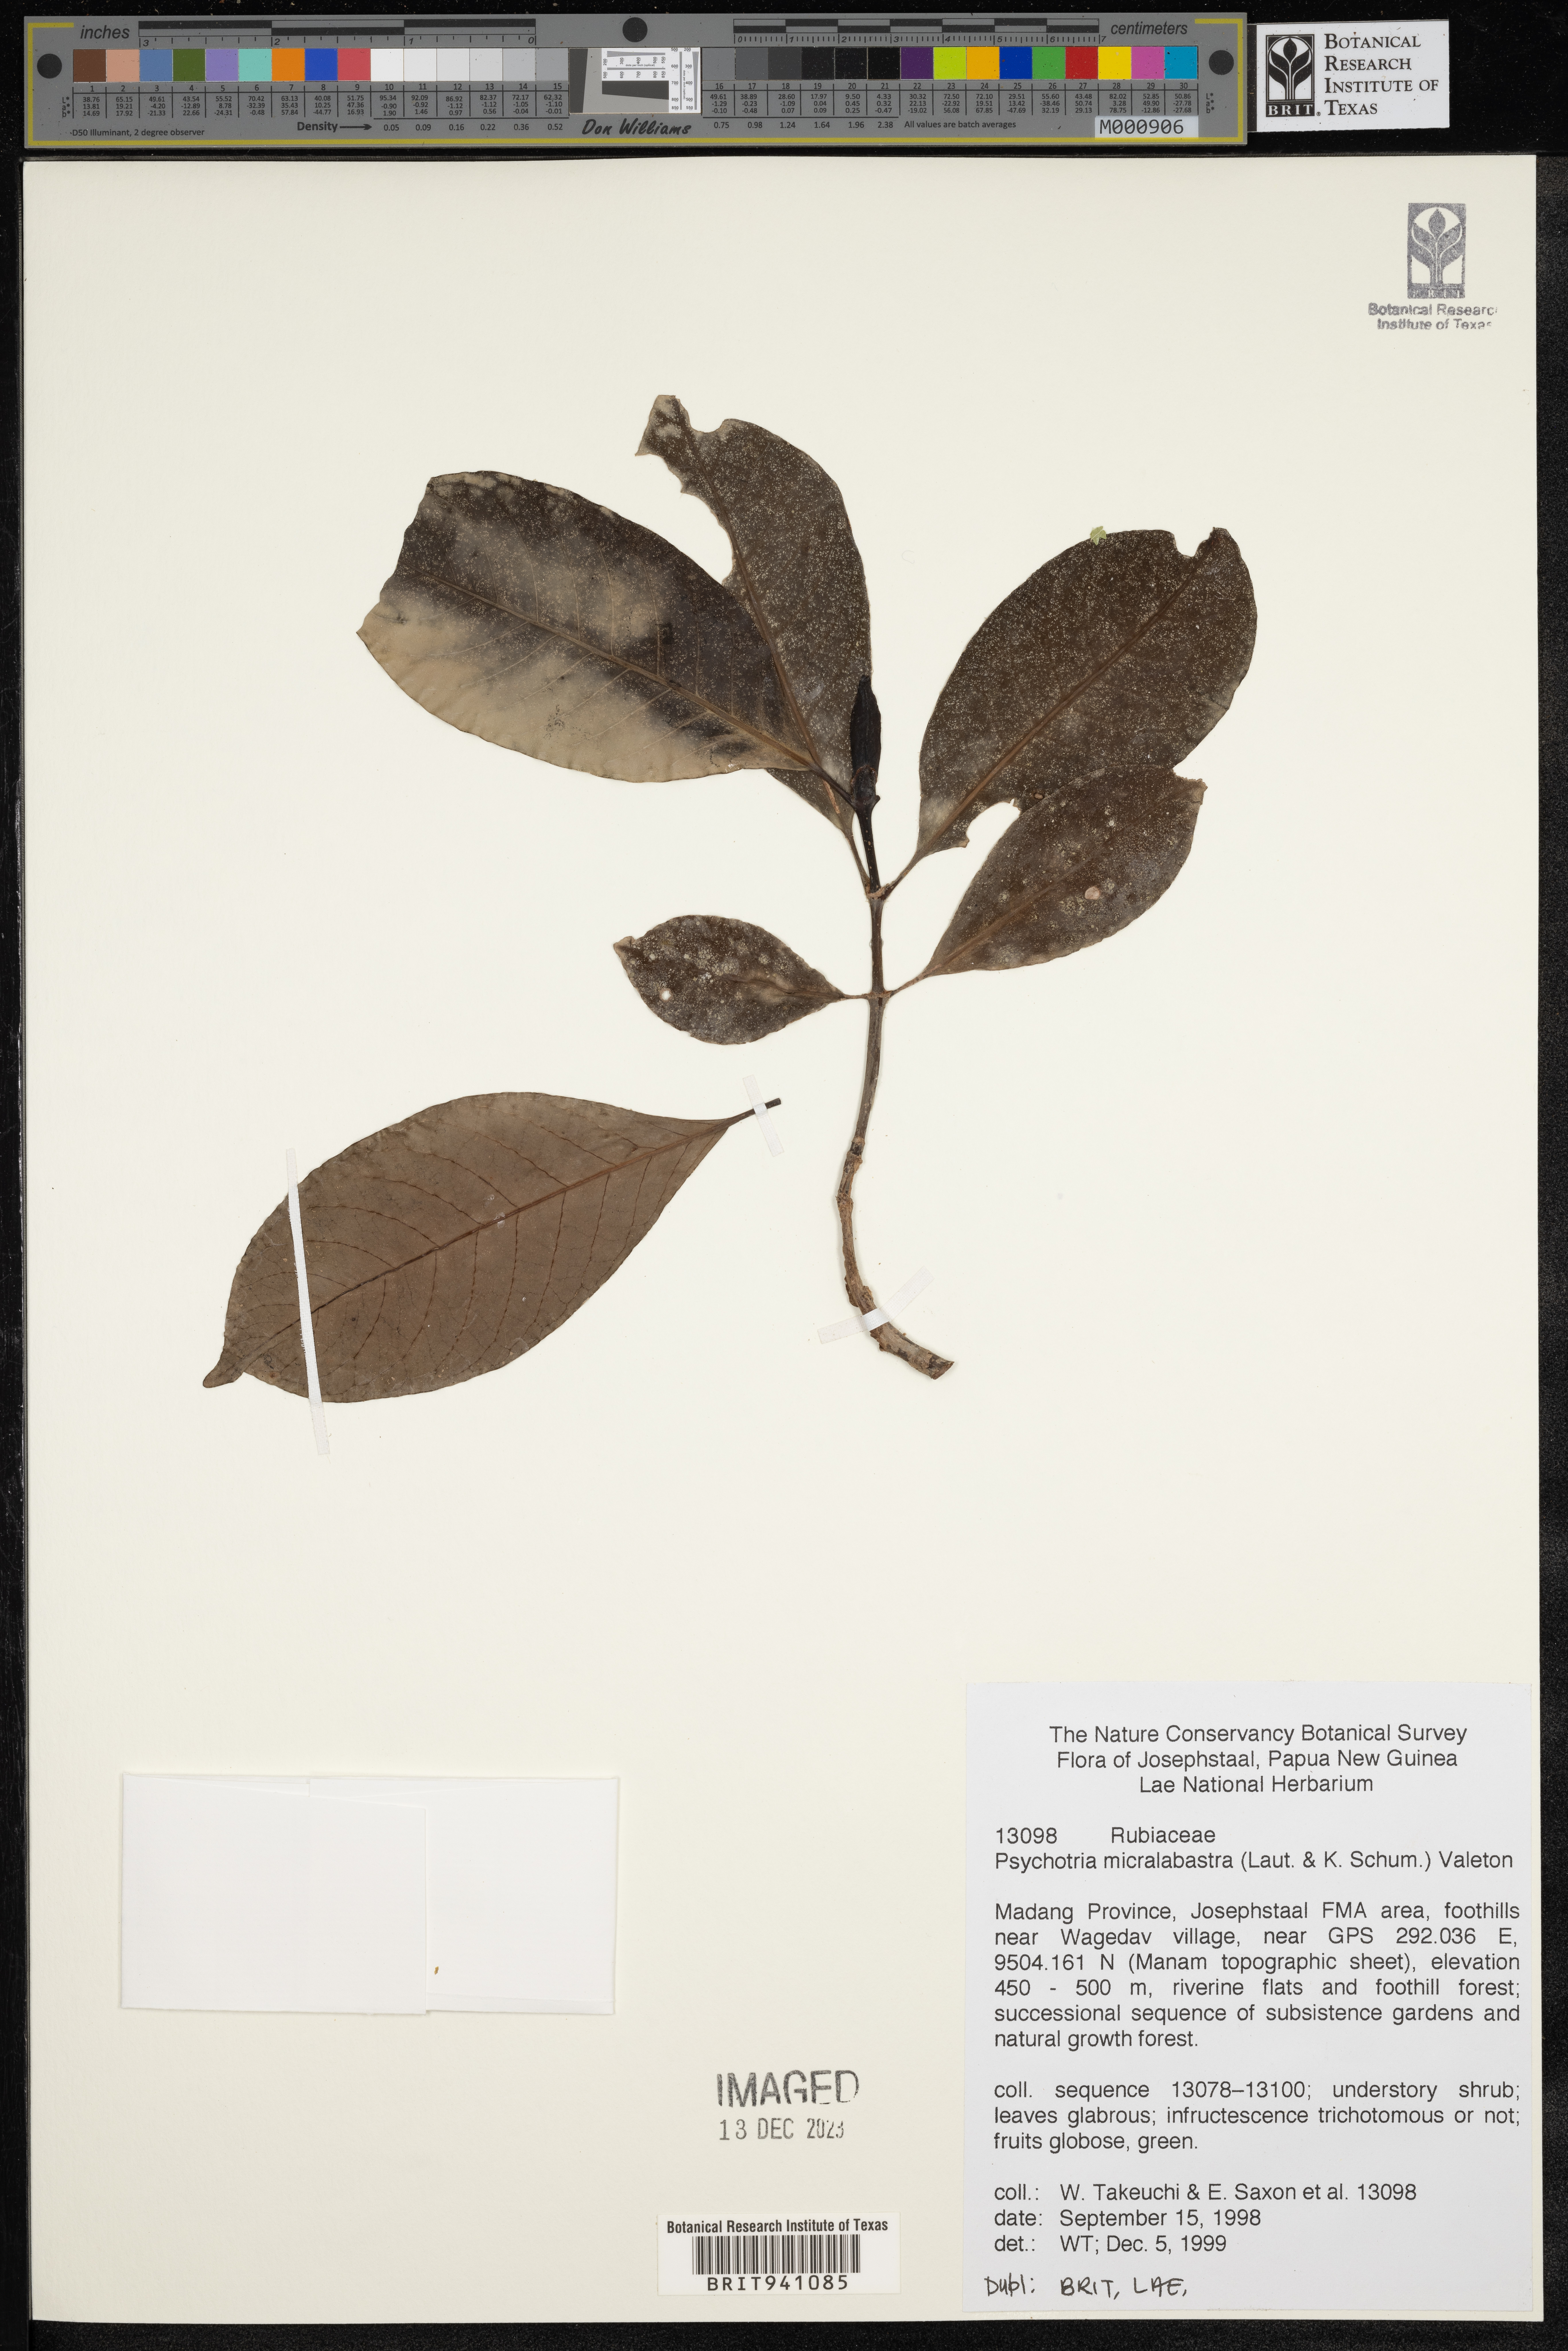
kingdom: Plantae
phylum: Tracheophyta
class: Magnoliopsida
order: Gentianales
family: Rubiaceae
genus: Psychotria
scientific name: Psychotria
